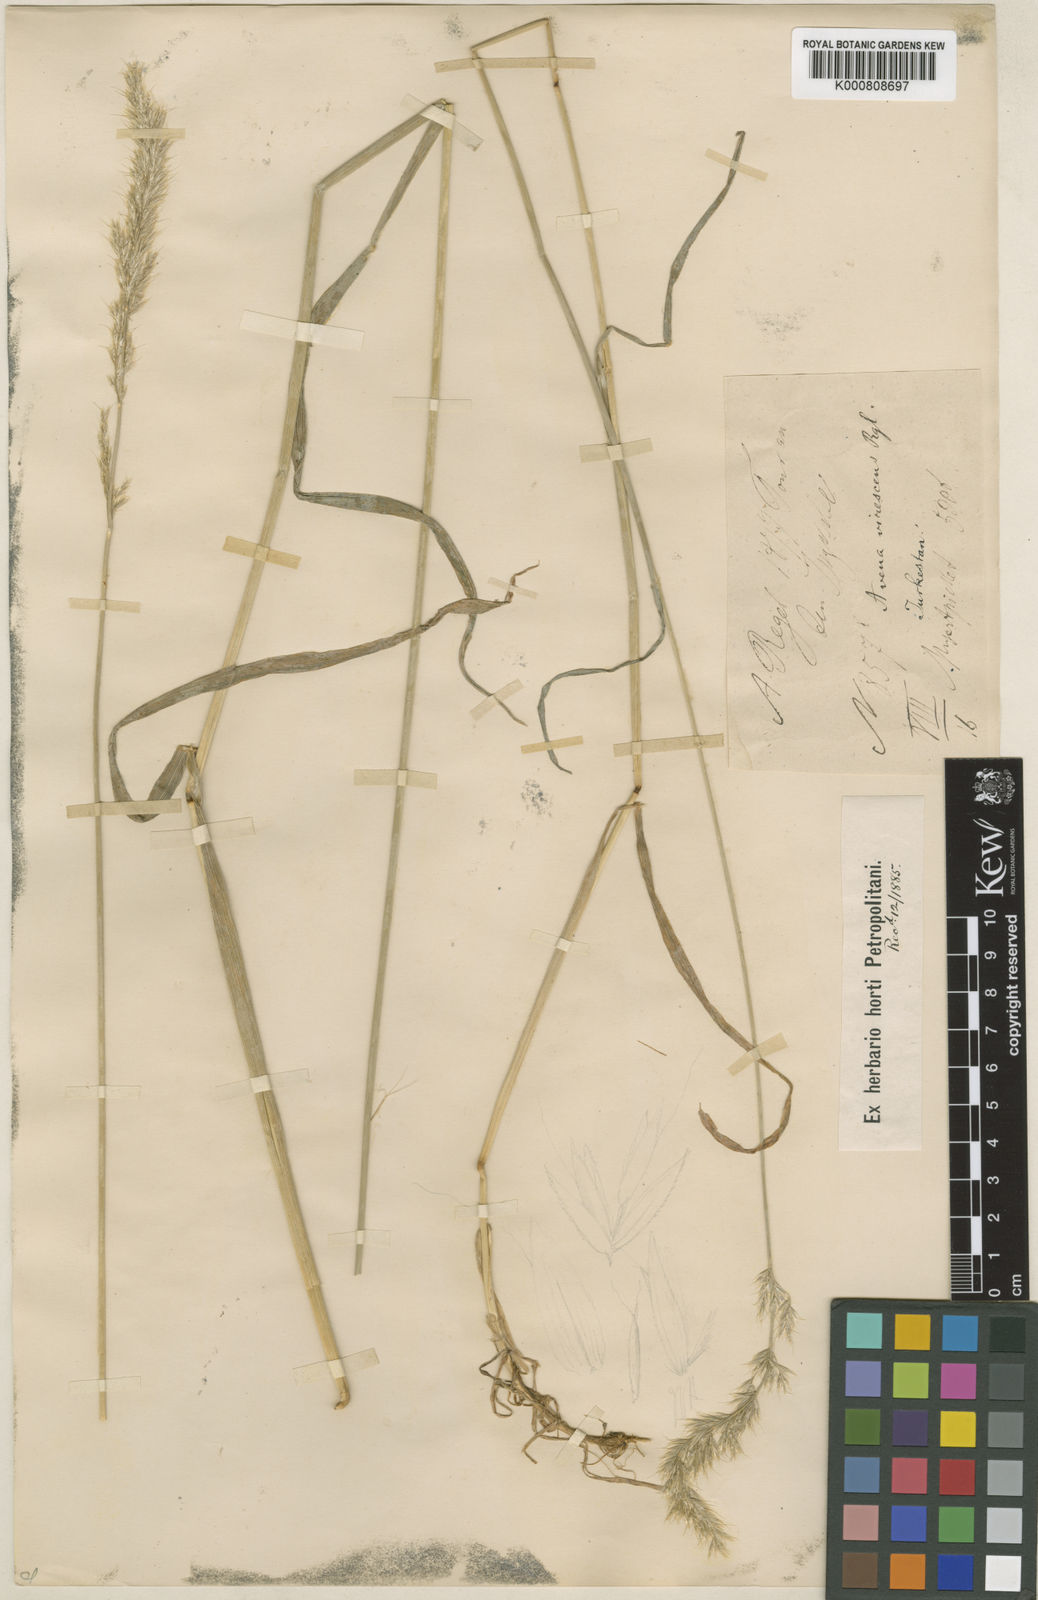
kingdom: Plantae
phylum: Tracheophyta
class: Liliopsida
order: Poales
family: Poaceae
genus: Koeleria
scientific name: Koeleria spicata
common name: Mountain trisetum
